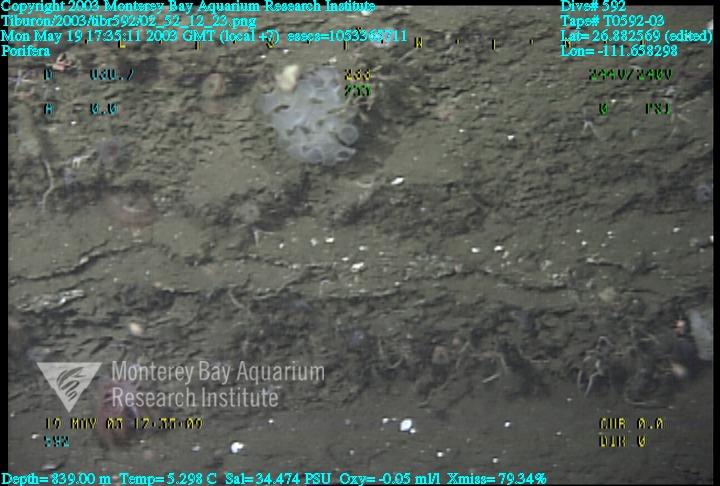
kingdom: Animalia
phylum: Porifera
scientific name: Porifera
